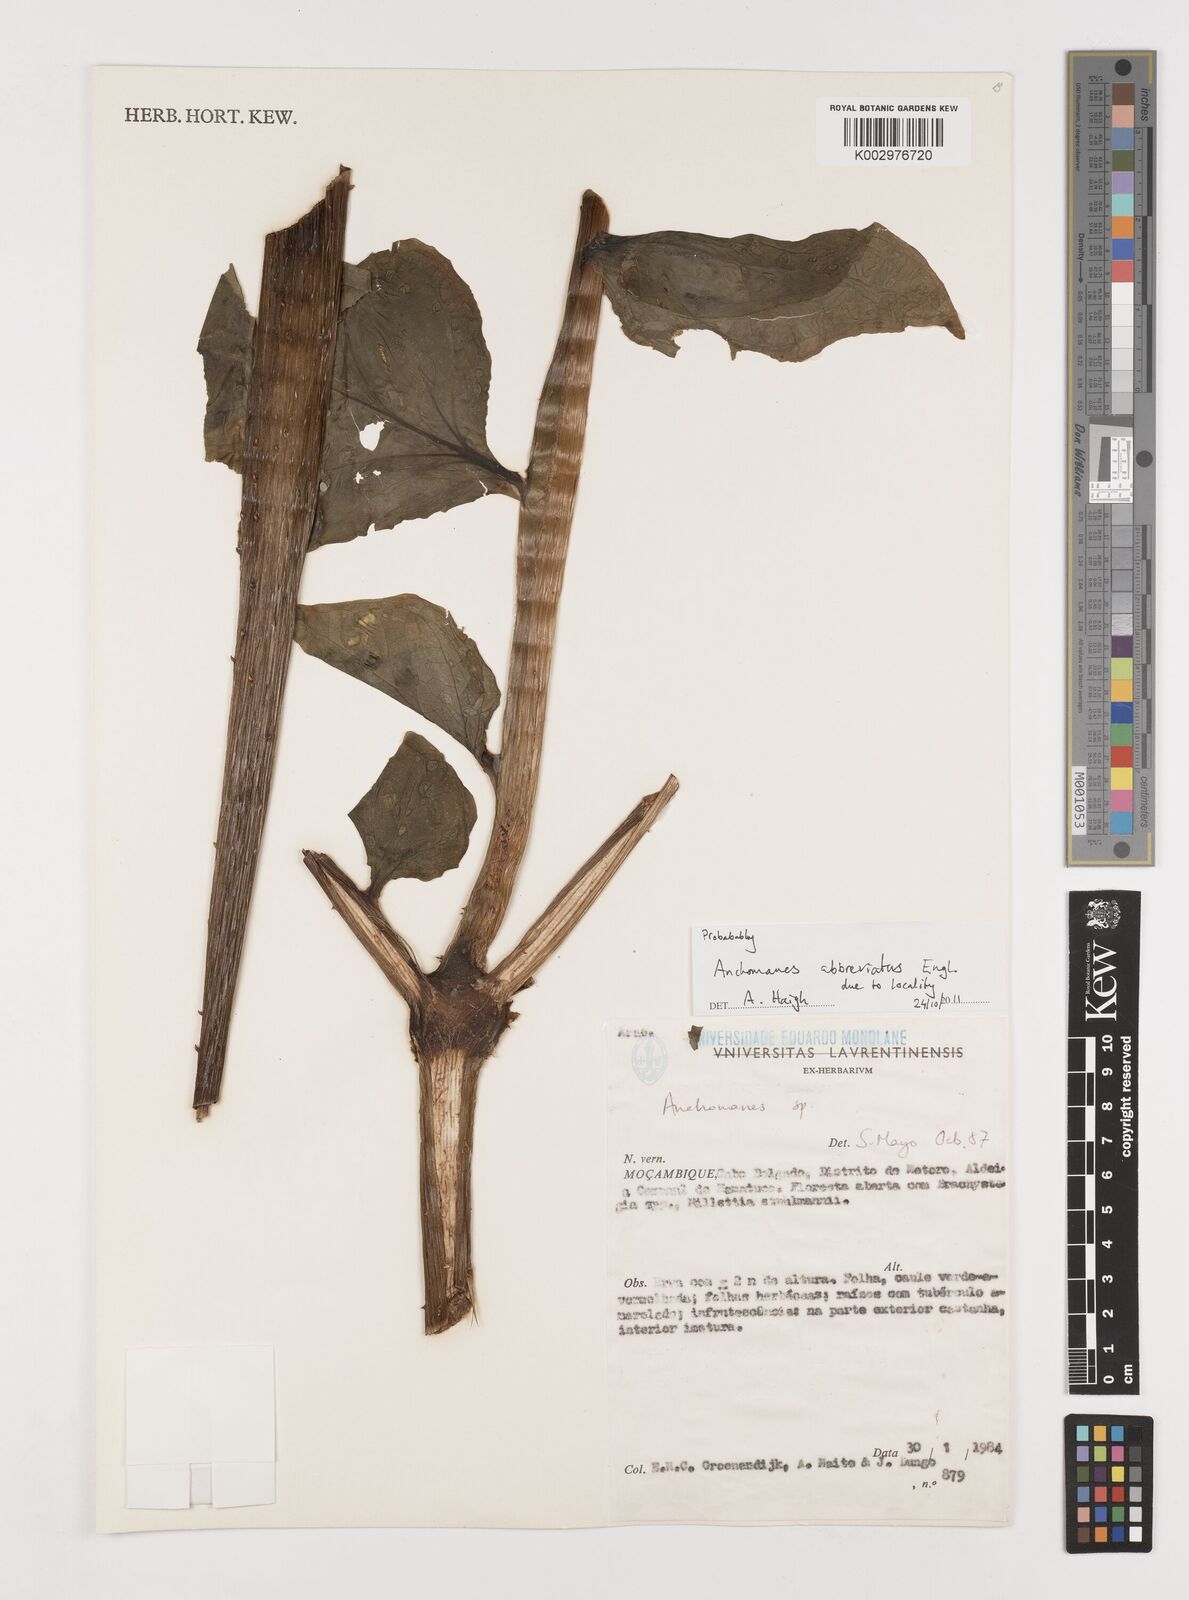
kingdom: Plantae
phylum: Tracheophyta
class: Liliopsida
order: Alismatales
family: Araceae
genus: Anchomanes
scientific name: Anchomanes abbreviatus
